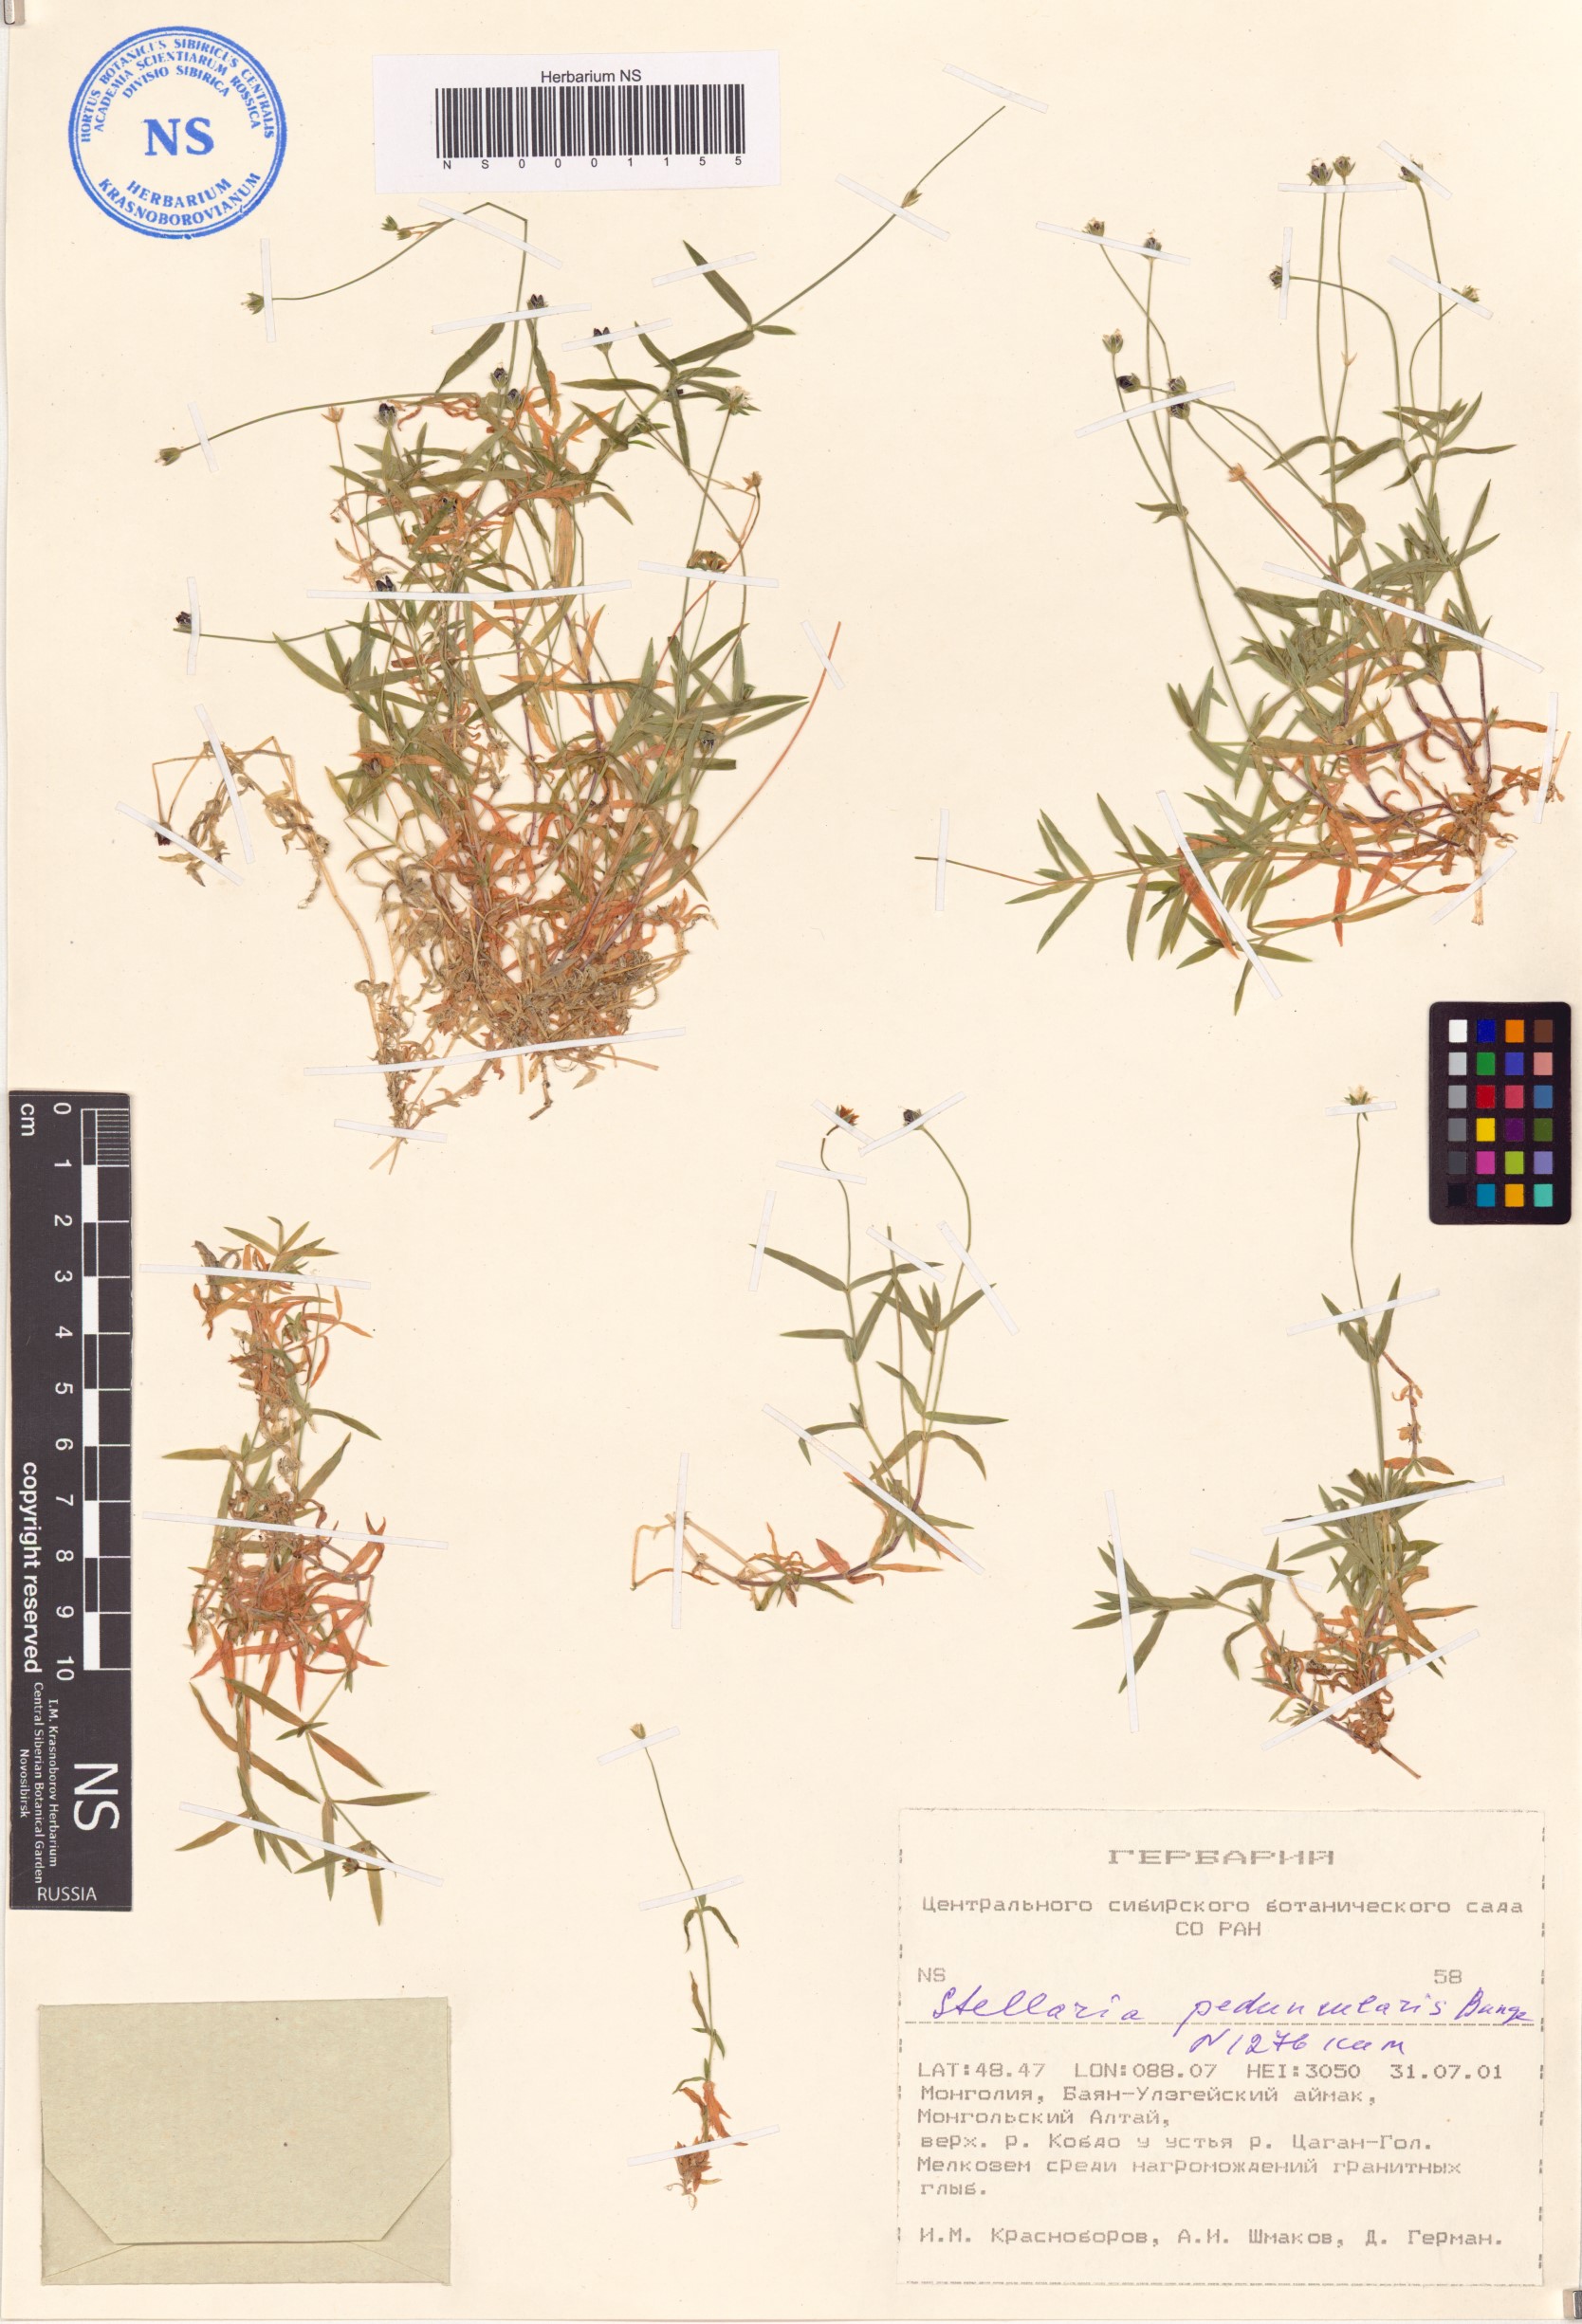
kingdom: Plantae
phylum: Tracheophyta
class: Magnoliopsida
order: Caryophyllales
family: Caryophyllaceae
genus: Stellaria
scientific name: Stellaria peduncularis
